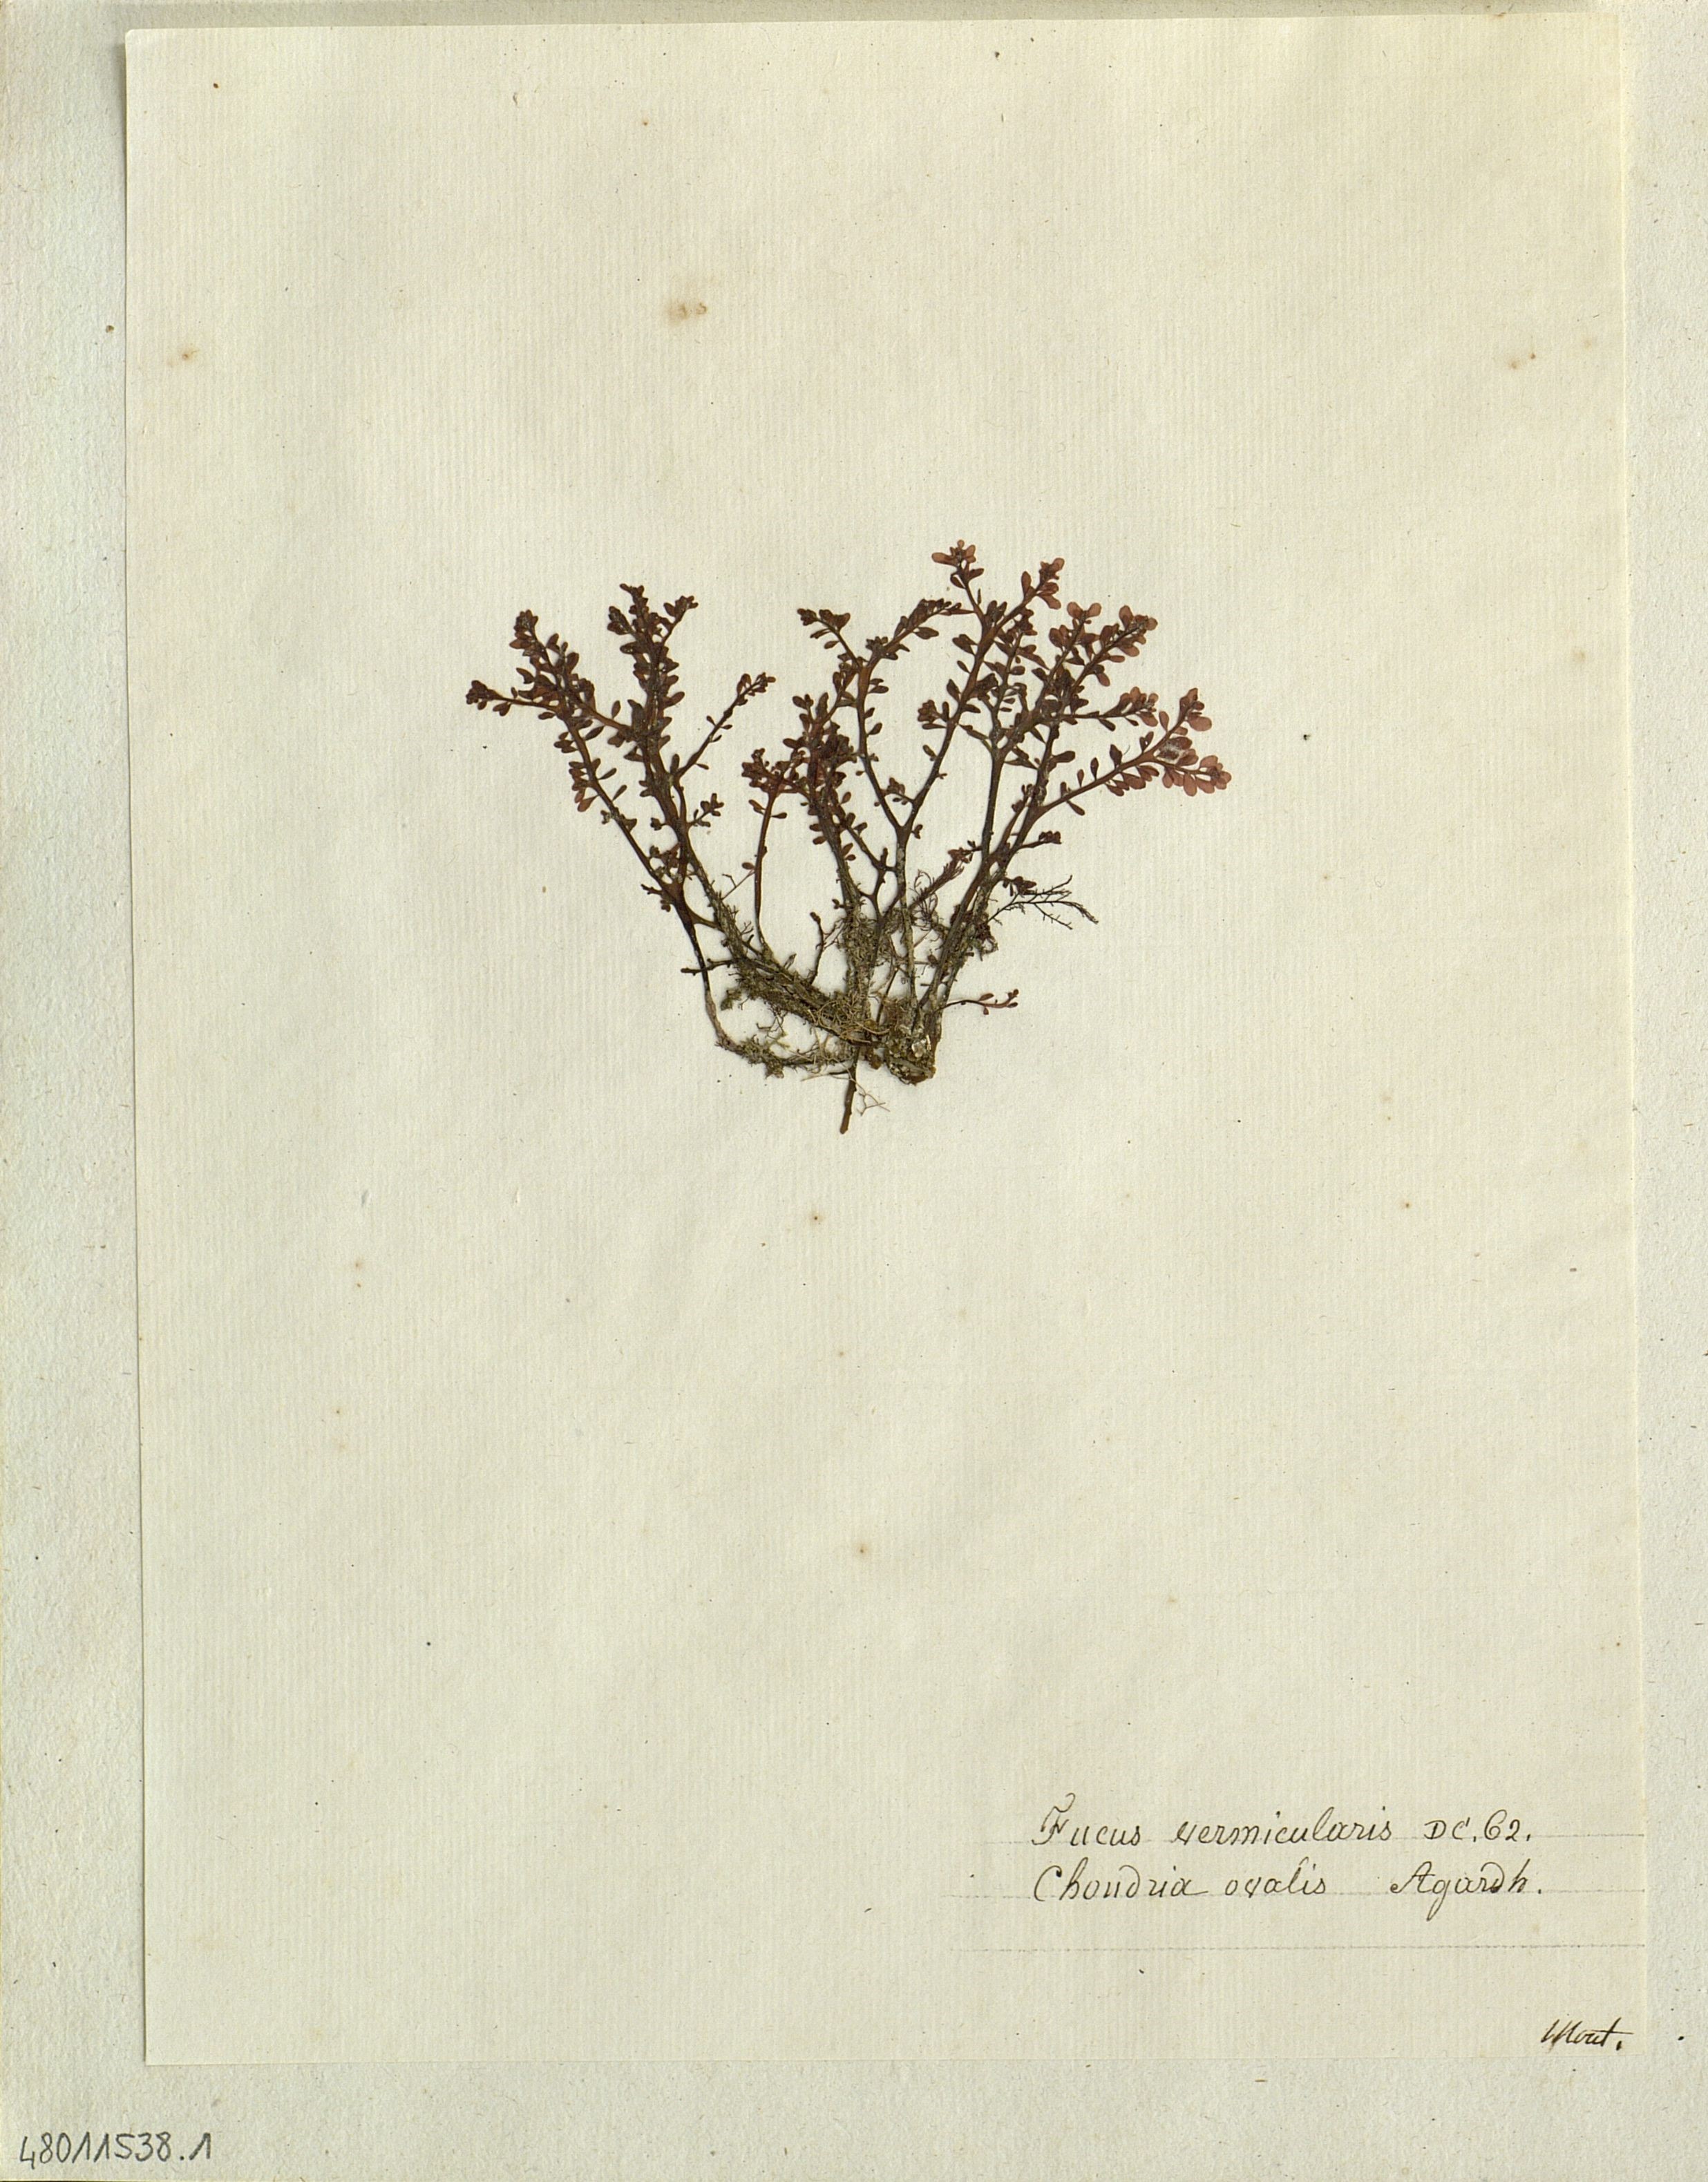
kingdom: Chromista
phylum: Ochrophyta
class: Phaeophyceae
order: Fucales
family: Fucaceae
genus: Fucus
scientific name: Fucus
